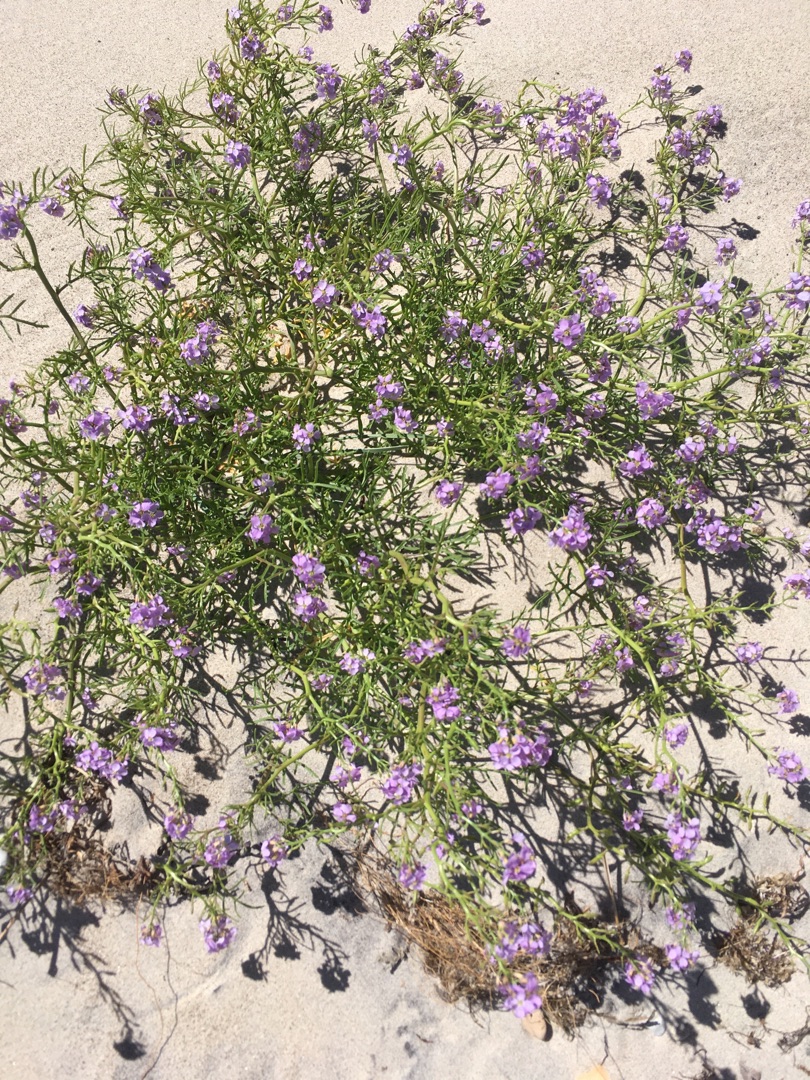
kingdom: Plantae
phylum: Tracheophyta
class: Magnoliopsida
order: Brassicales
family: Brassicaceae
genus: Cakile
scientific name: Cakile maritima
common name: Strandsennep
